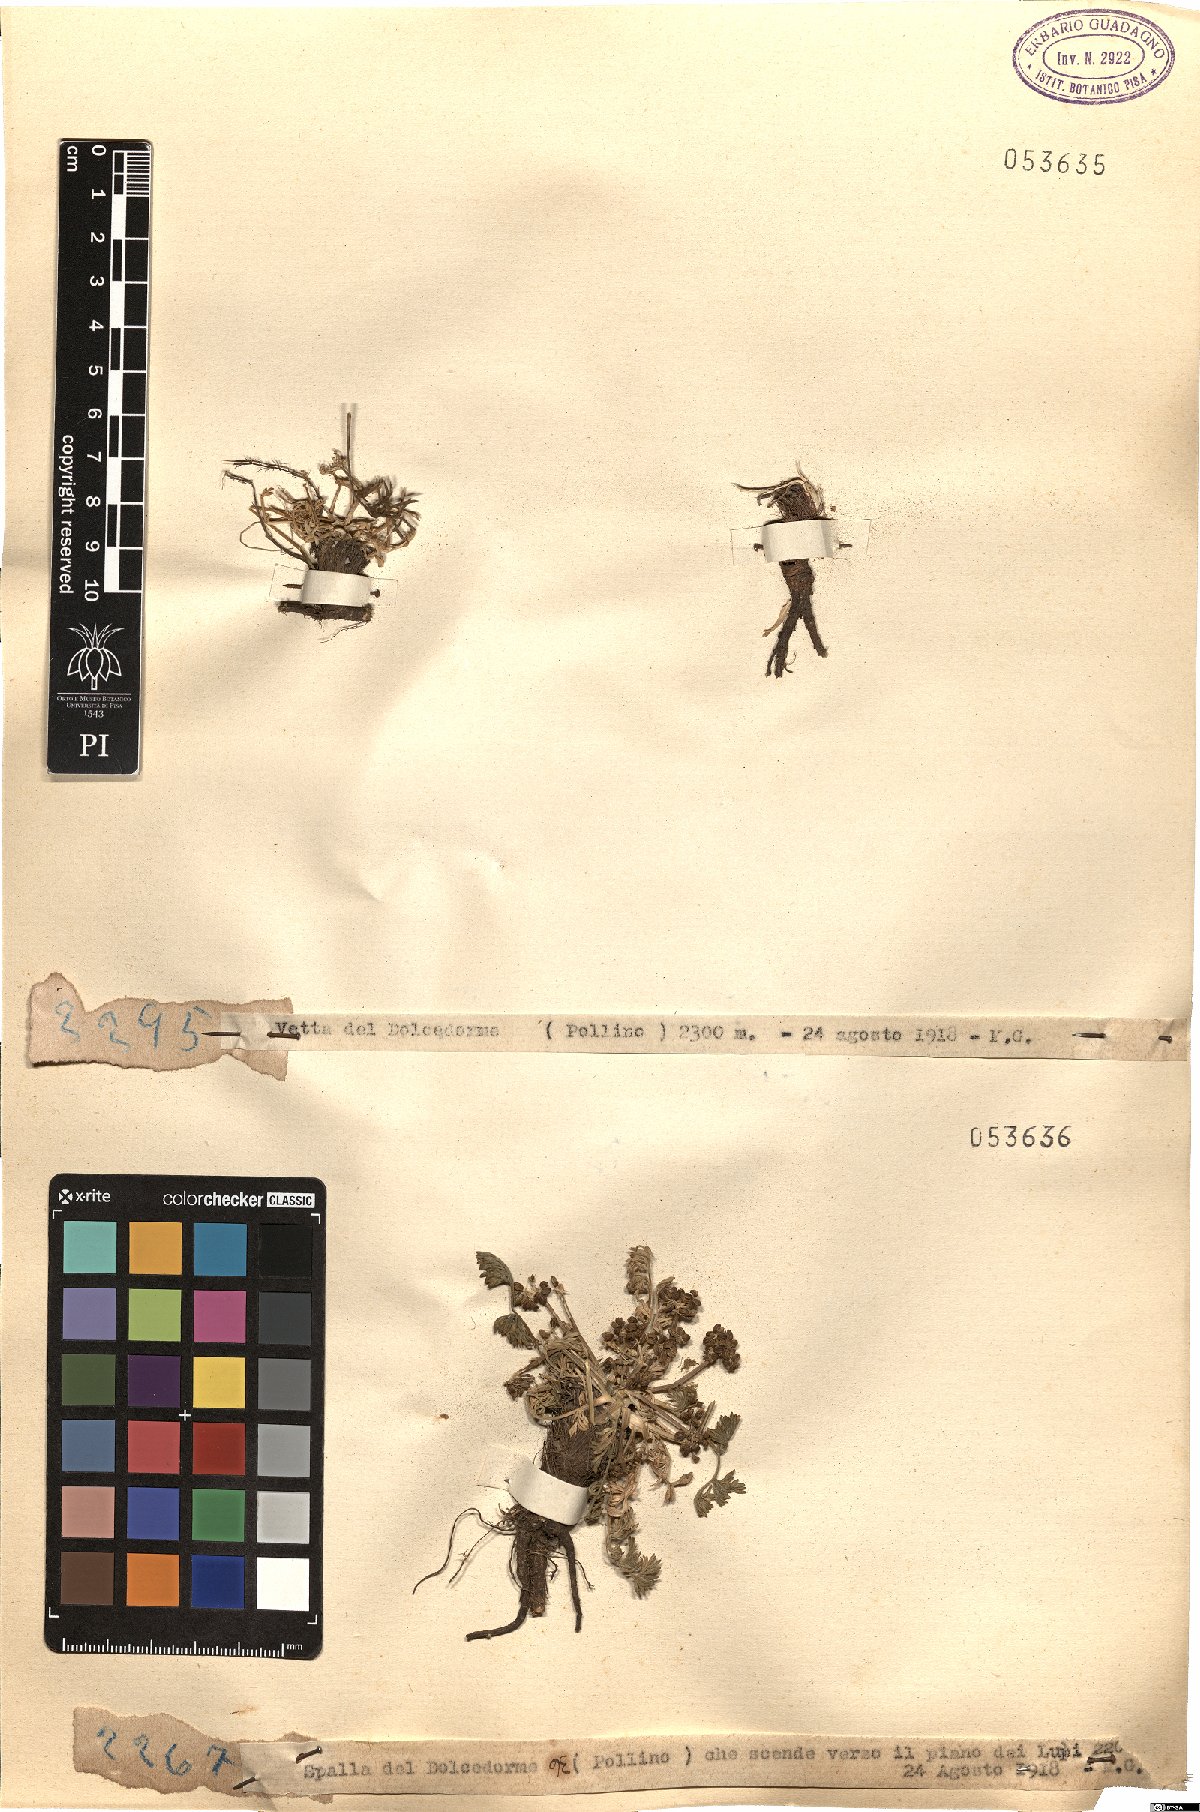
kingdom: Plantae
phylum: Tracheophyta
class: Magnoliopsida
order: Apiales
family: Apiaceae
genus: Trinia
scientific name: Trinia
